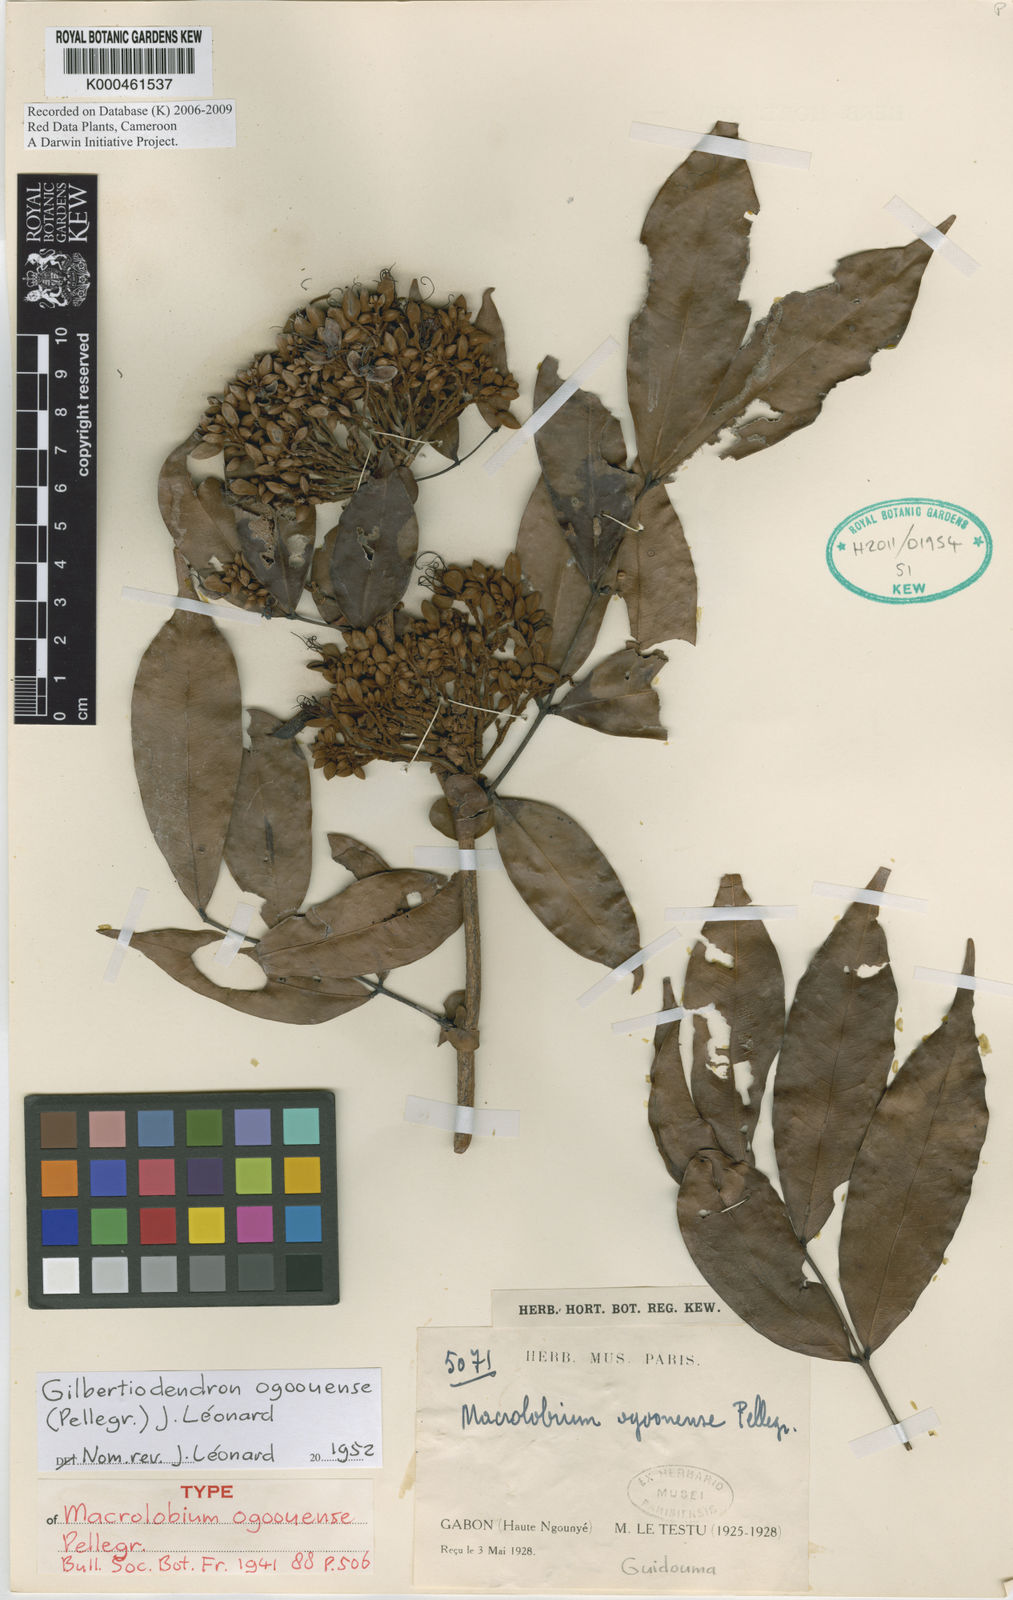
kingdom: Plantae
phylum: Tracheophyta
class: Magnoliopsida
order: Fabales
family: Fabaceae
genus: Gilbertiodendron
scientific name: Gilbertiodendron ogoouense
